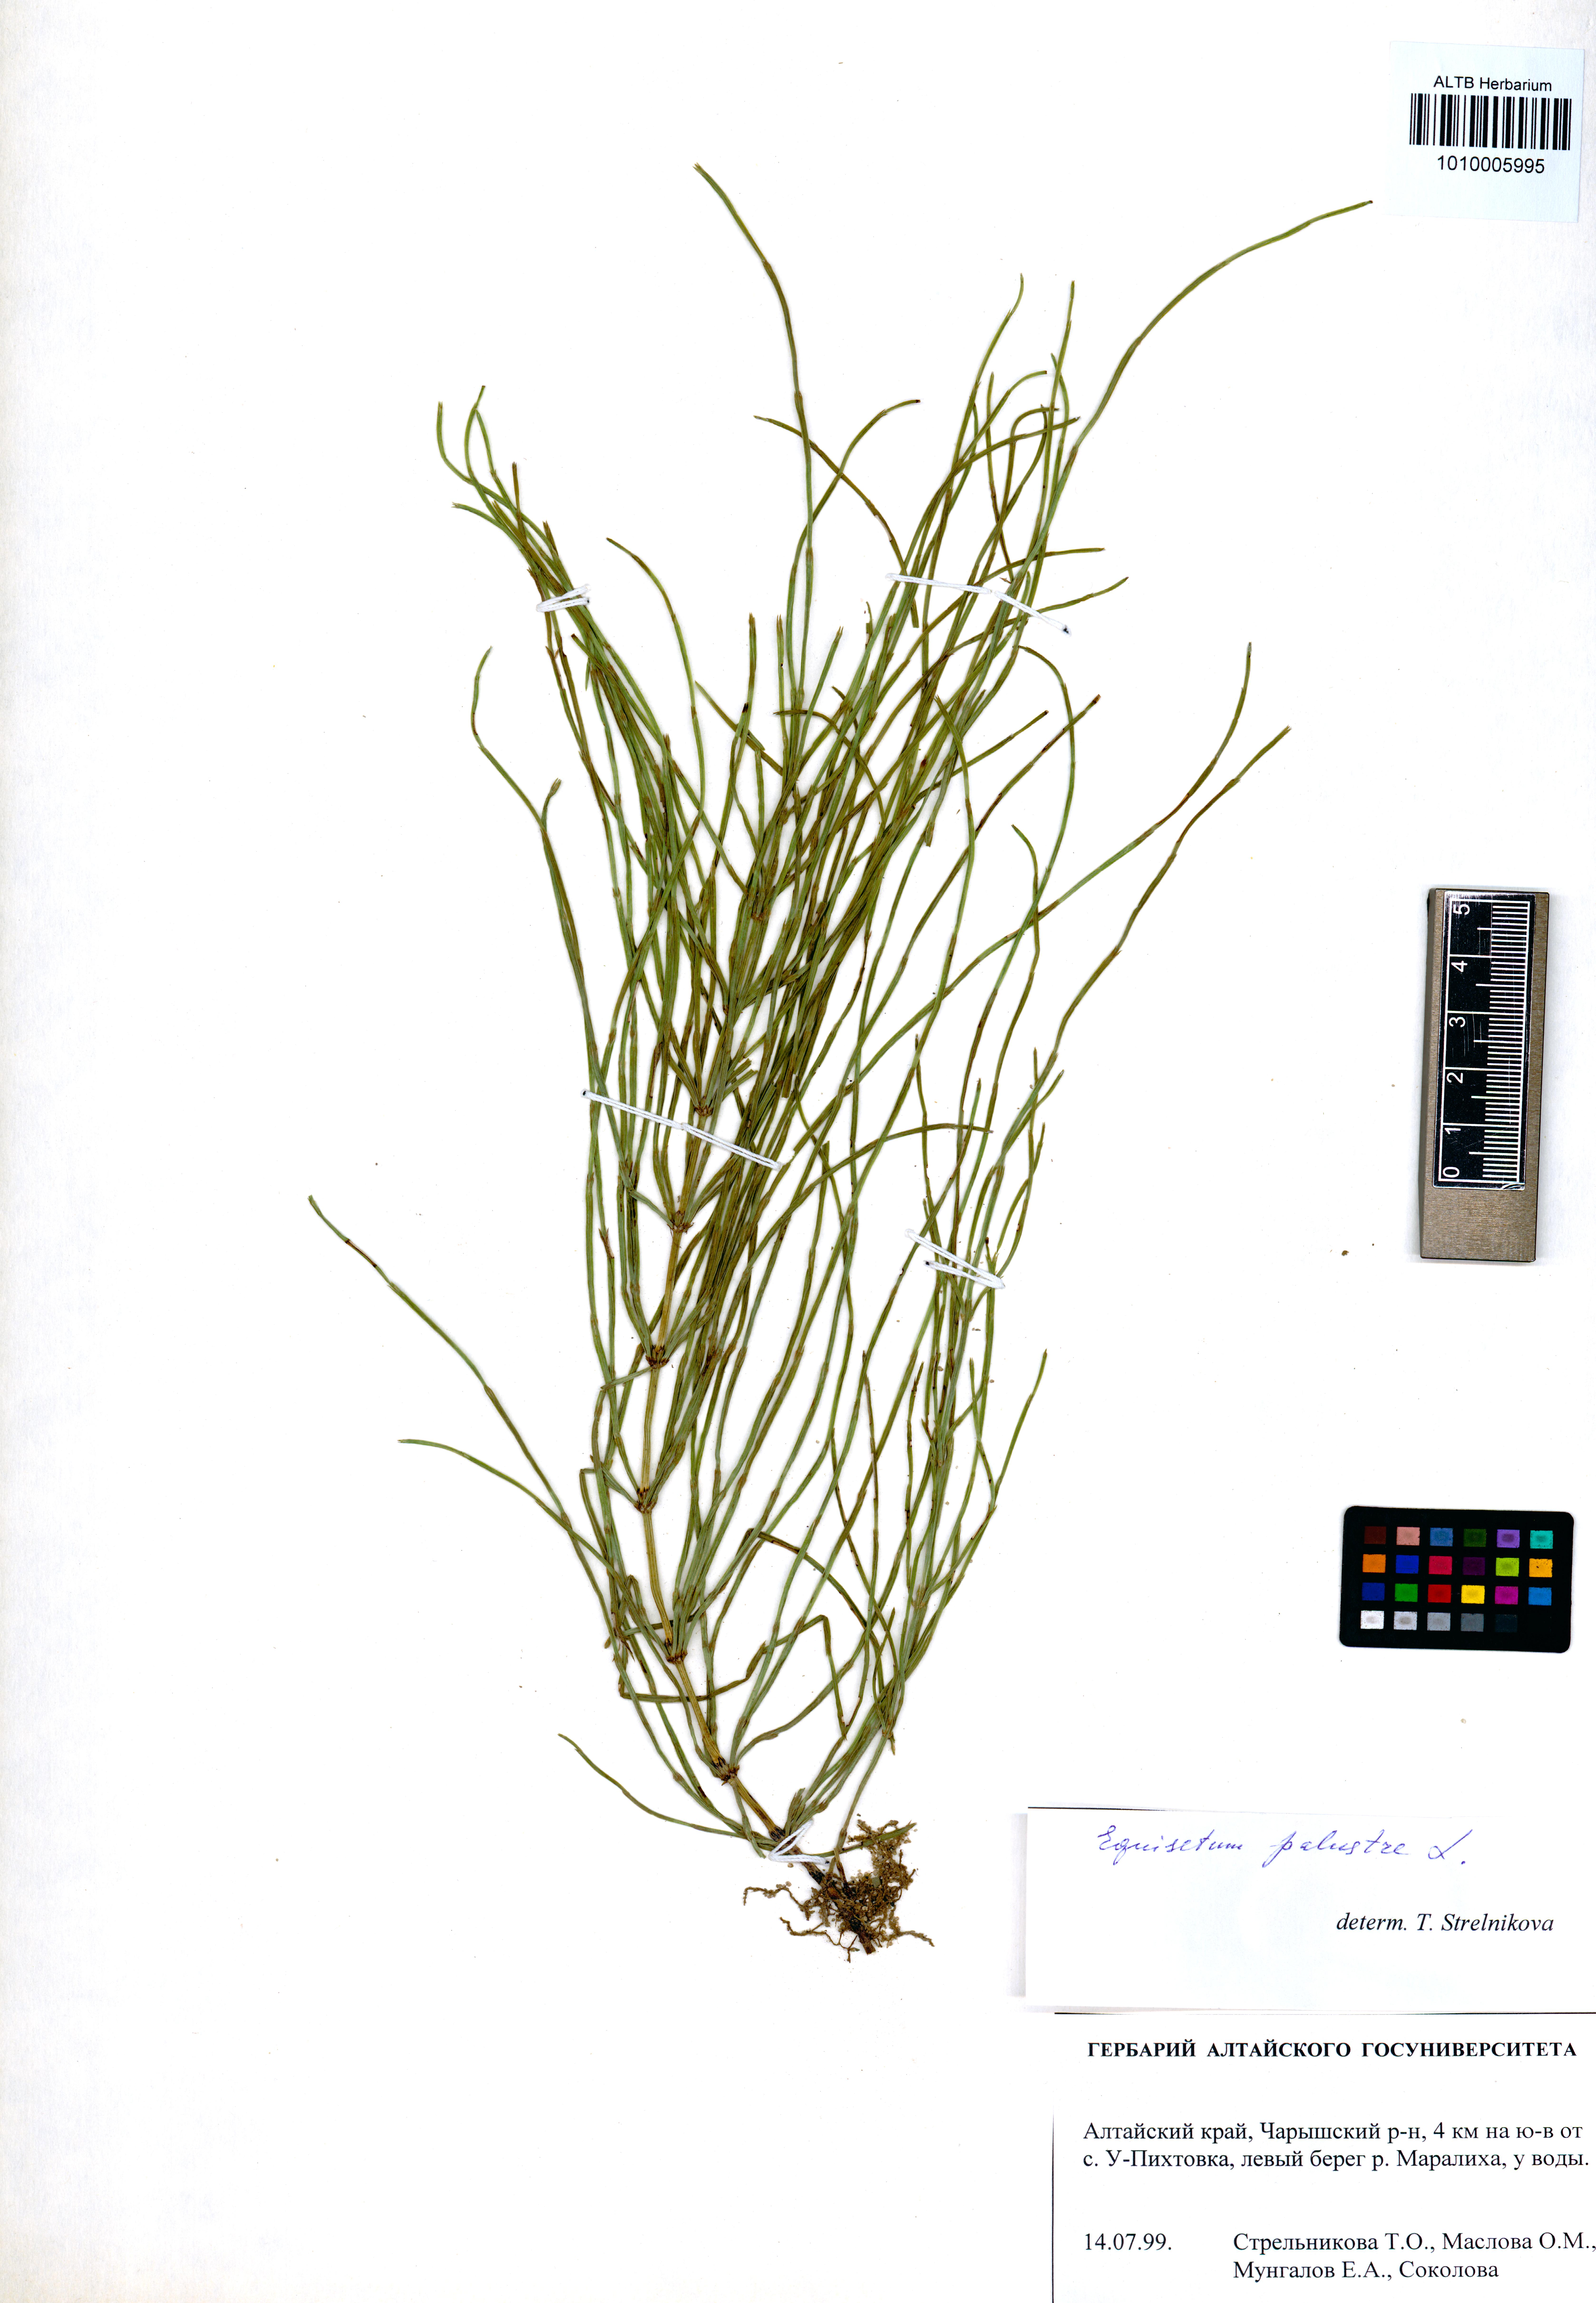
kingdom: Plantae
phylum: Tracheophyta
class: Polypodiopsida
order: Equisetales
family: Equisetaceae
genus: Equisetum
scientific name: Equisetum palustre
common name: Marsh horsetail
